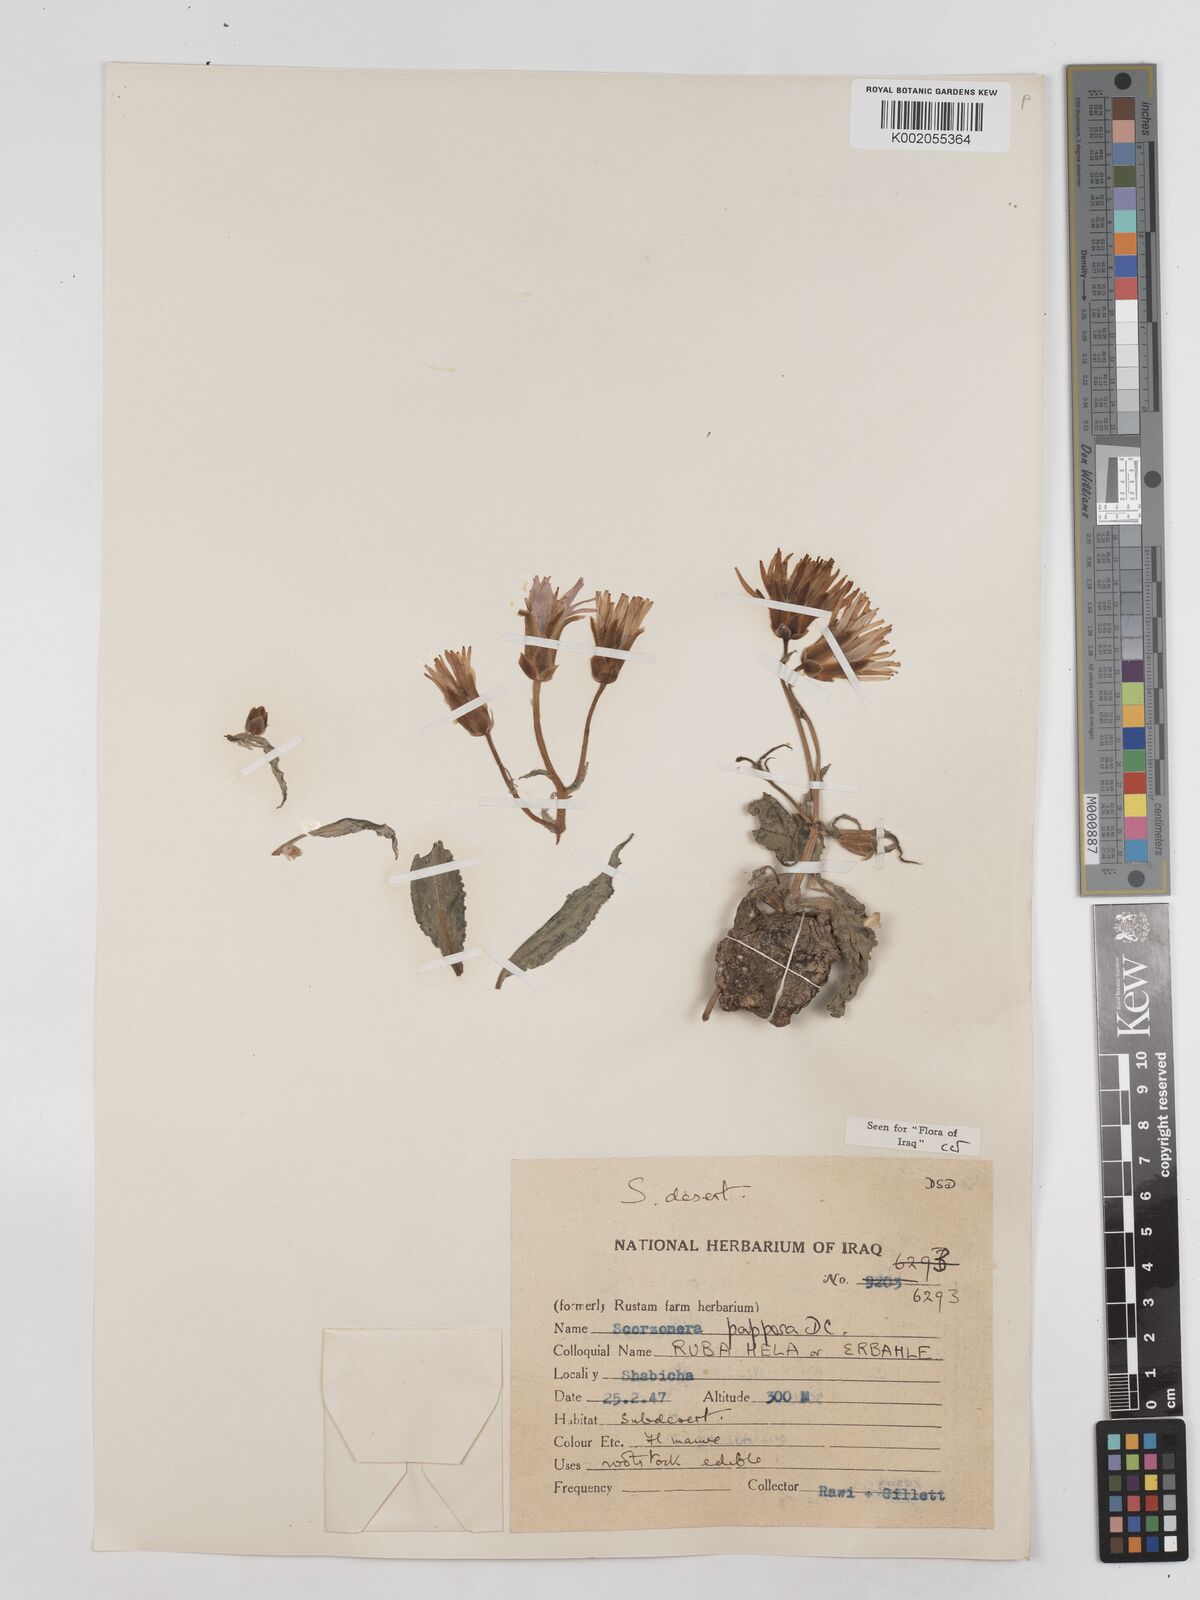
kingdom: Plantae
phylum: Tracheophyta
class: Magnoliopsida
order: Asterales
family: Asteraceae
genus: Pseudopodospermum
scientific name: Pseudopodospermum papposum
